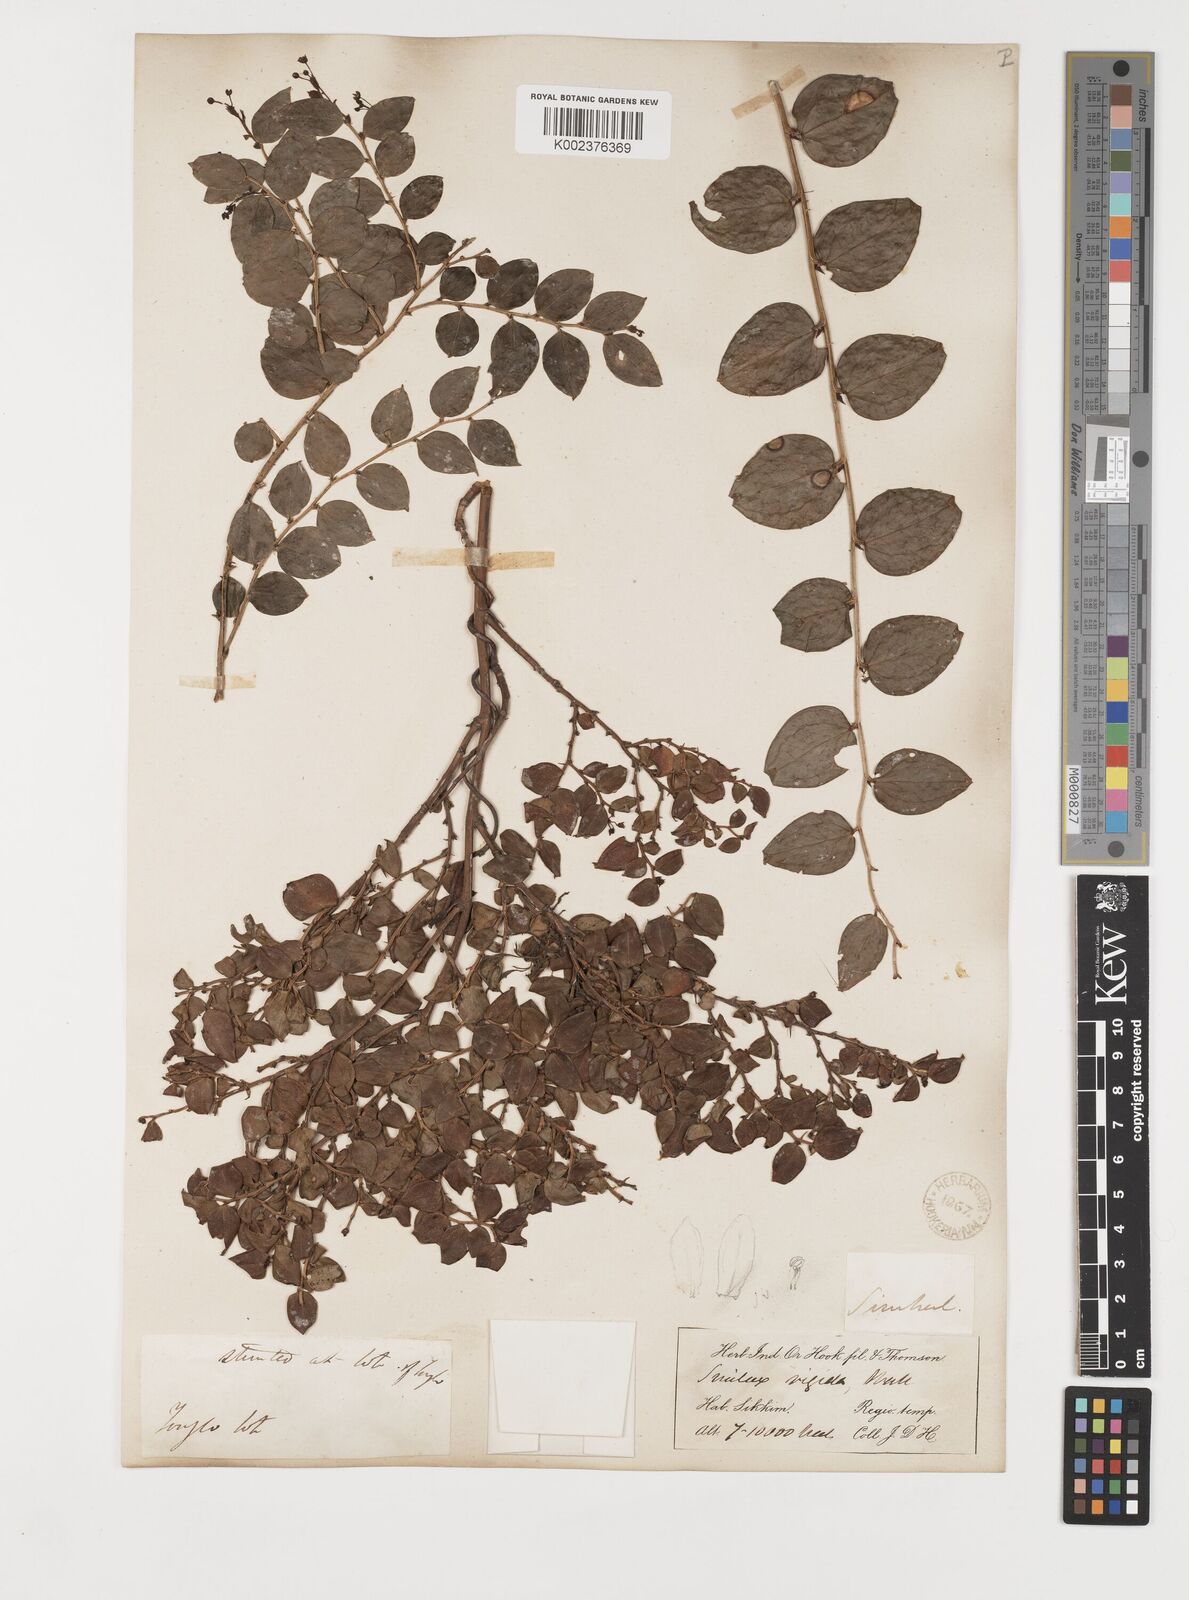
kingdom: Plantae
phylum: Tracheophyta
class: Liliopsida
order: Liliales
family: Smilacaceae
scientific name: Smilacaceae
